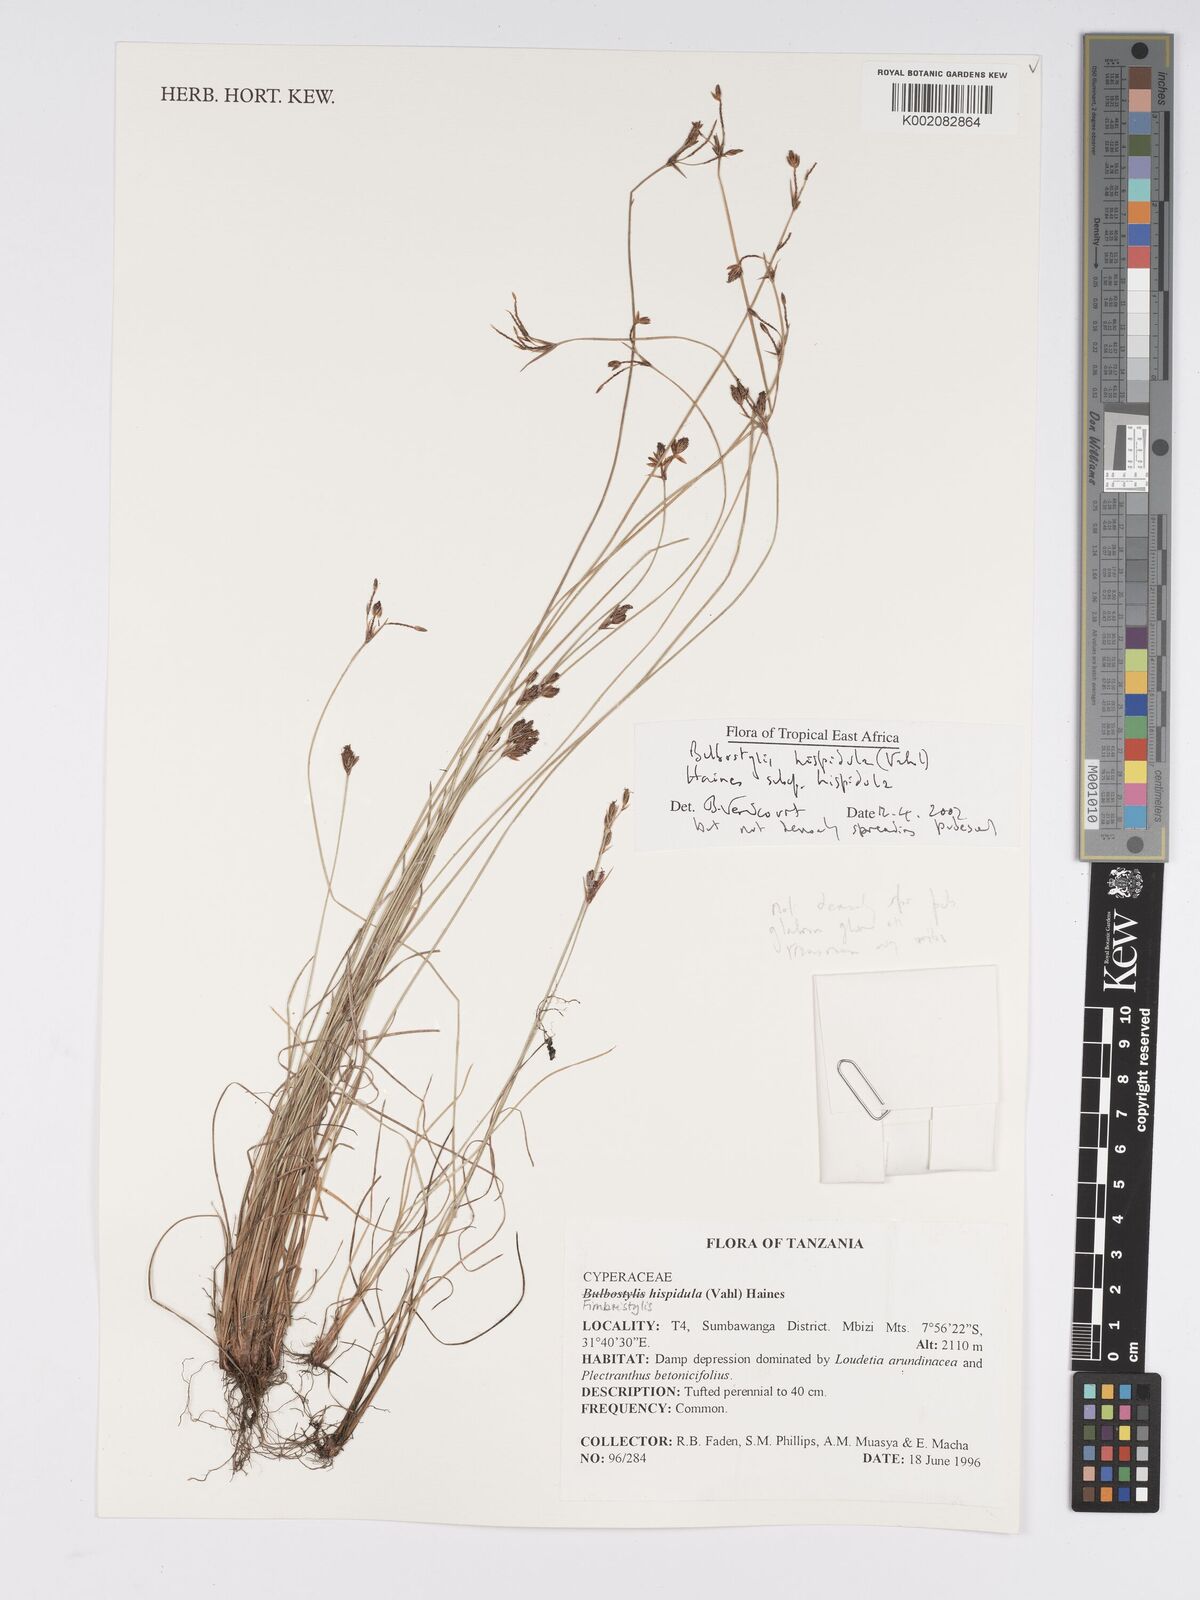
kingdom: Plantae
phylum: Tracheophyta
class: Liliopsida
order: Poales
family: Cyperaceae
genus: Bulbostylis
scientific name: Bulbostylis hispidula
